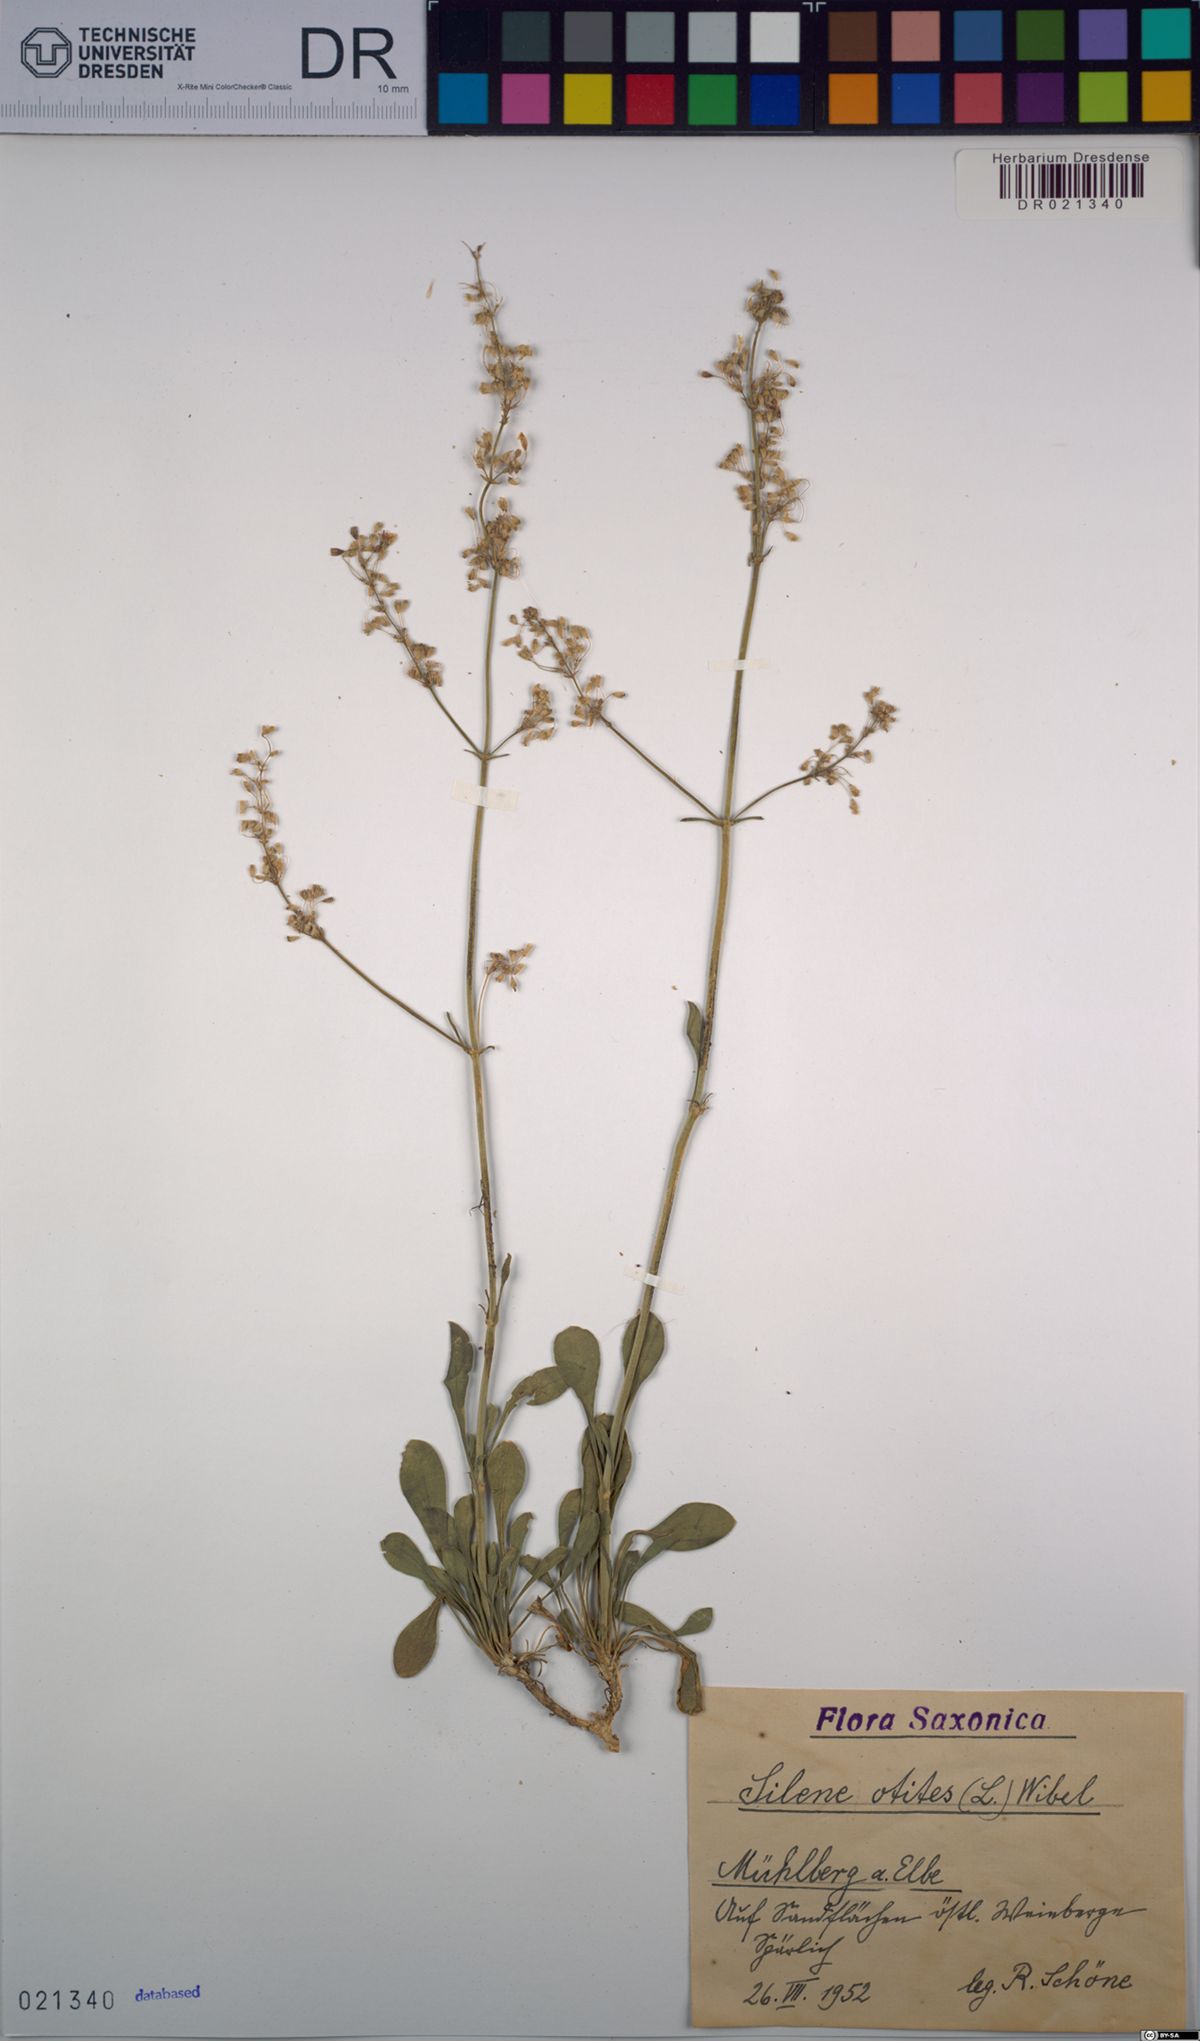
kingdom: Plantae
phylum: Tracheophyta
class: Magnoliopsida
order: Caryophyllales
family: Caryophyllaceae
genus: Silene
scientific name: Silene otites
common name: Spanish catchfly
